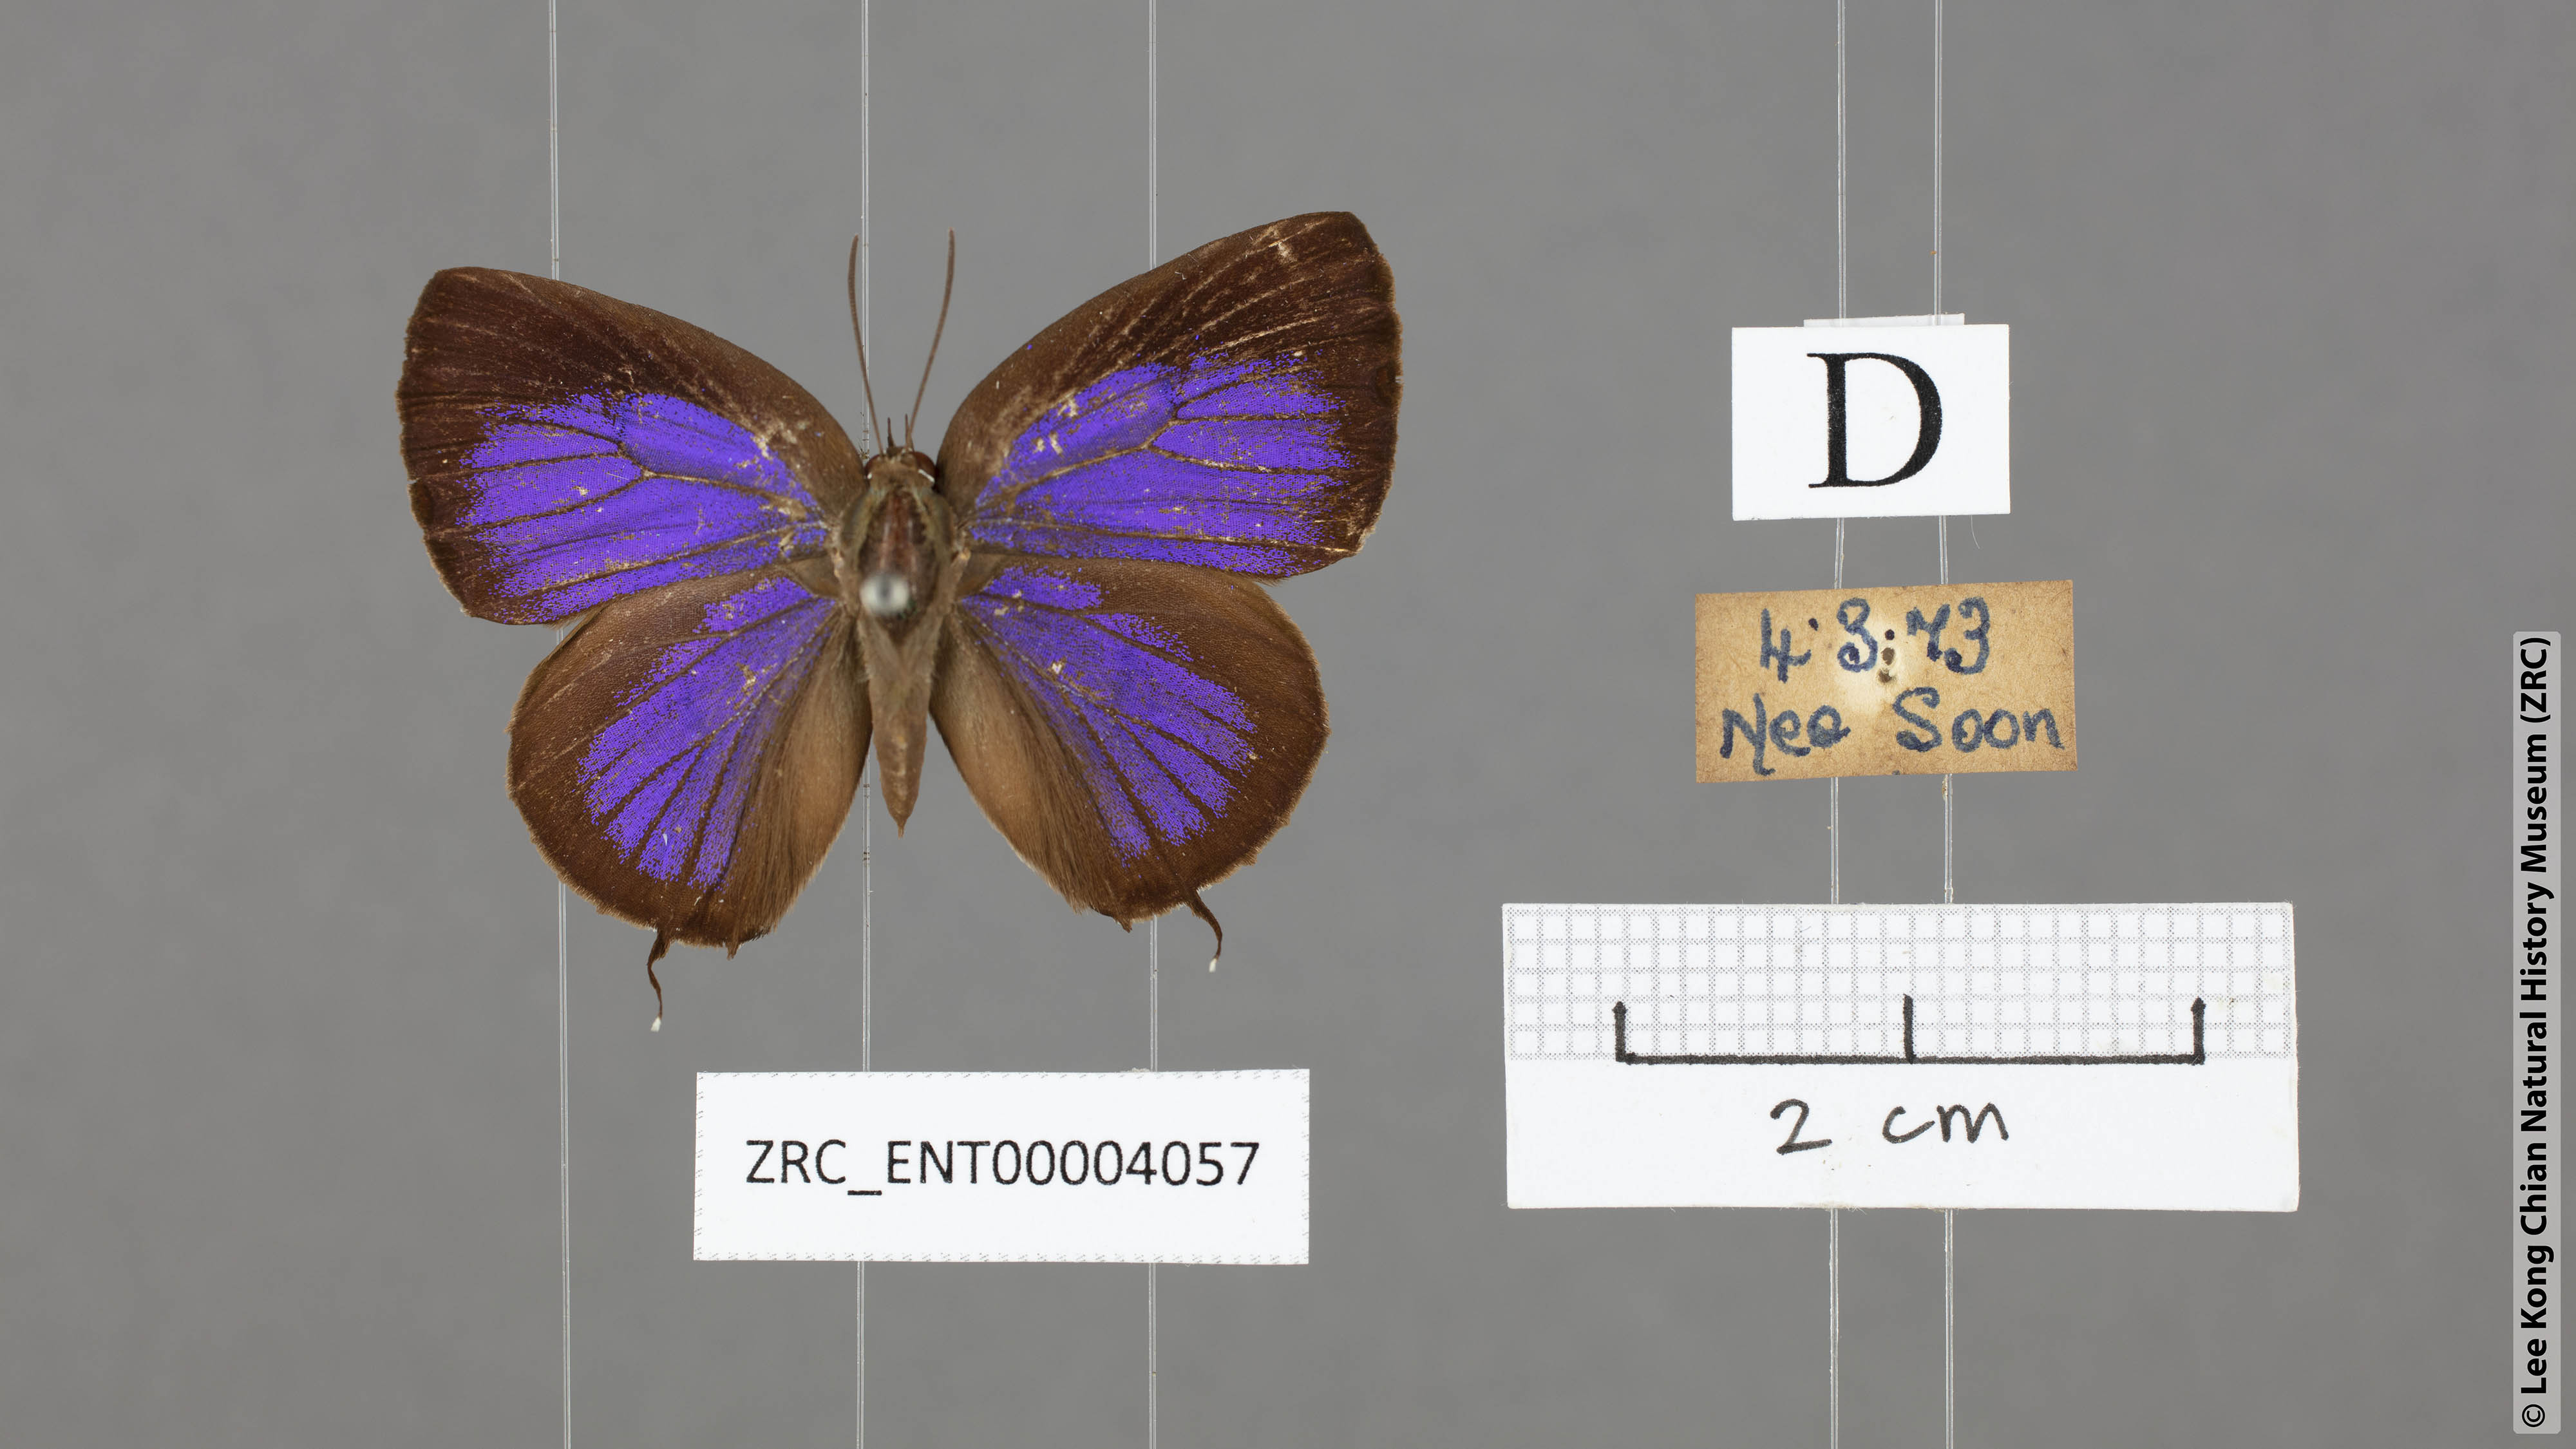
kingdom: Animalia
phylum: Arthropoda
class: Insecta
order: Lepidoptera
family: Lycaenidae
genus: Arhopala
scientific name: Arhopala sublustris
